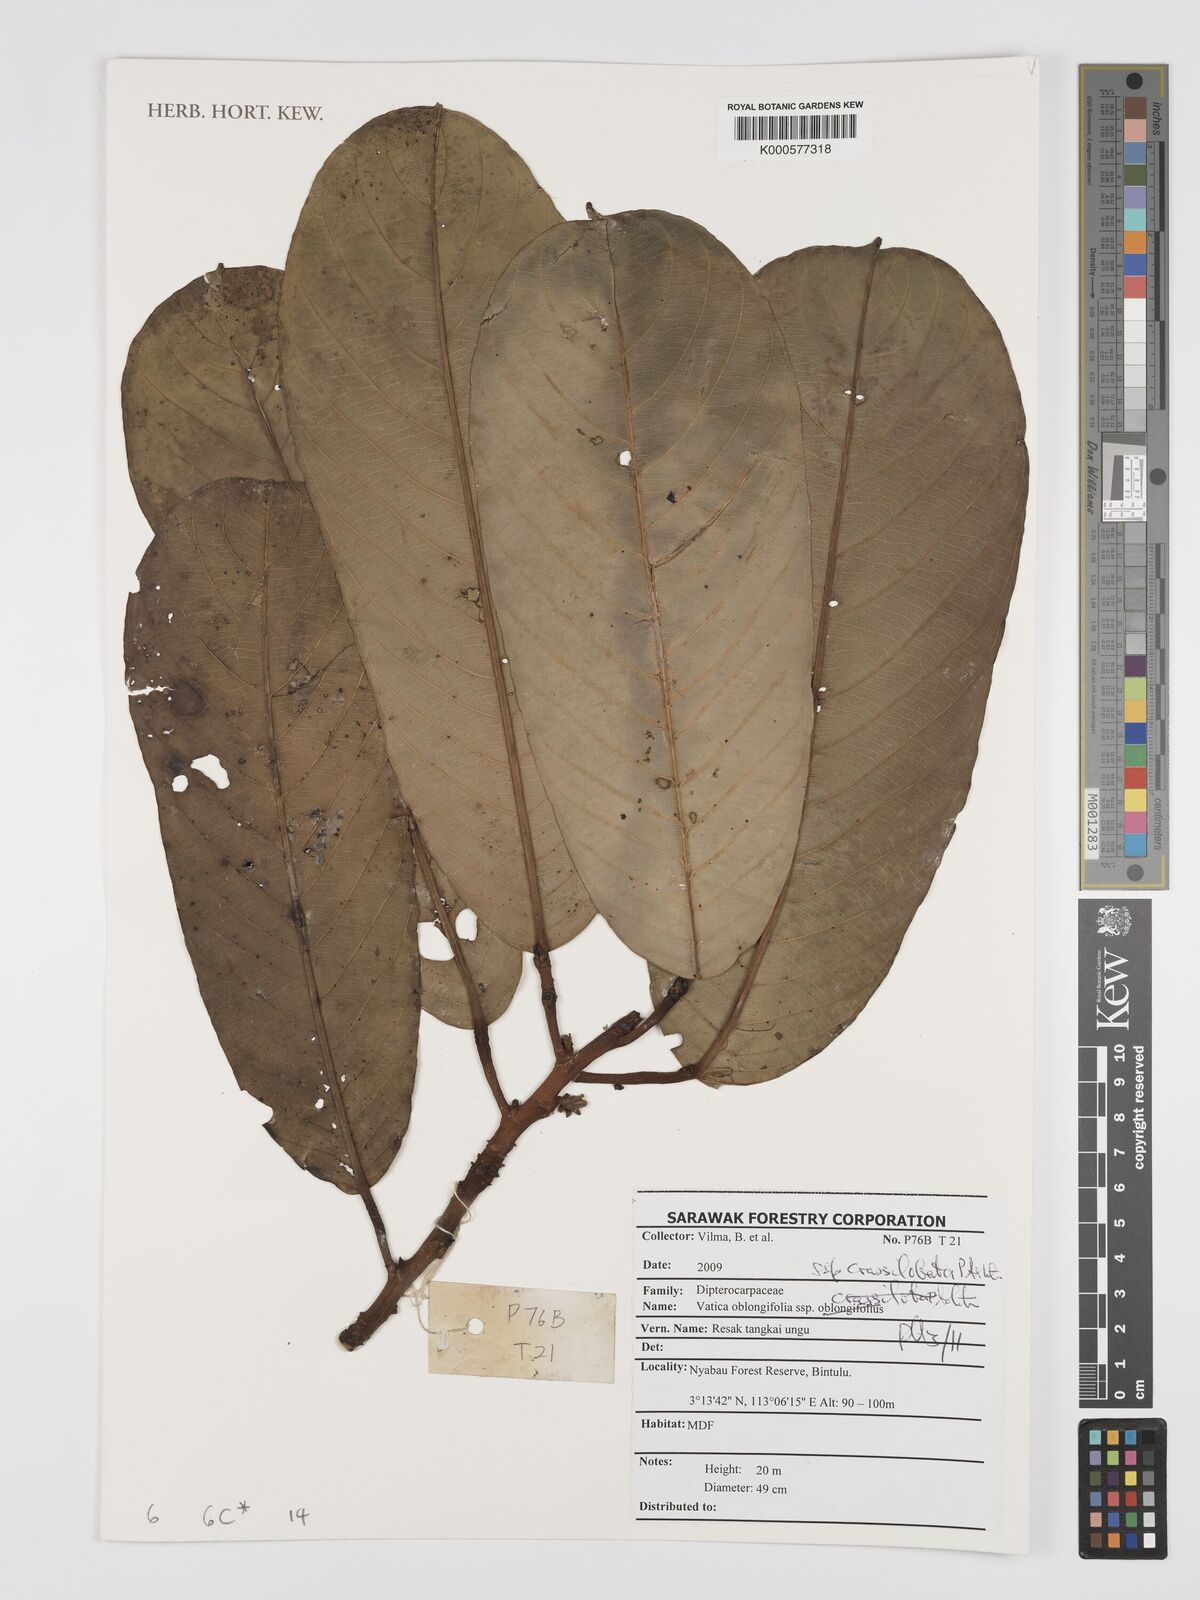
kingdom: Plantae
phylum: Tracheophyta
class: Magnoliopsida
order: Malvales
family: Dipterocarpaceae
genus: Vatica
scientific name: Vatica oblongifolia
